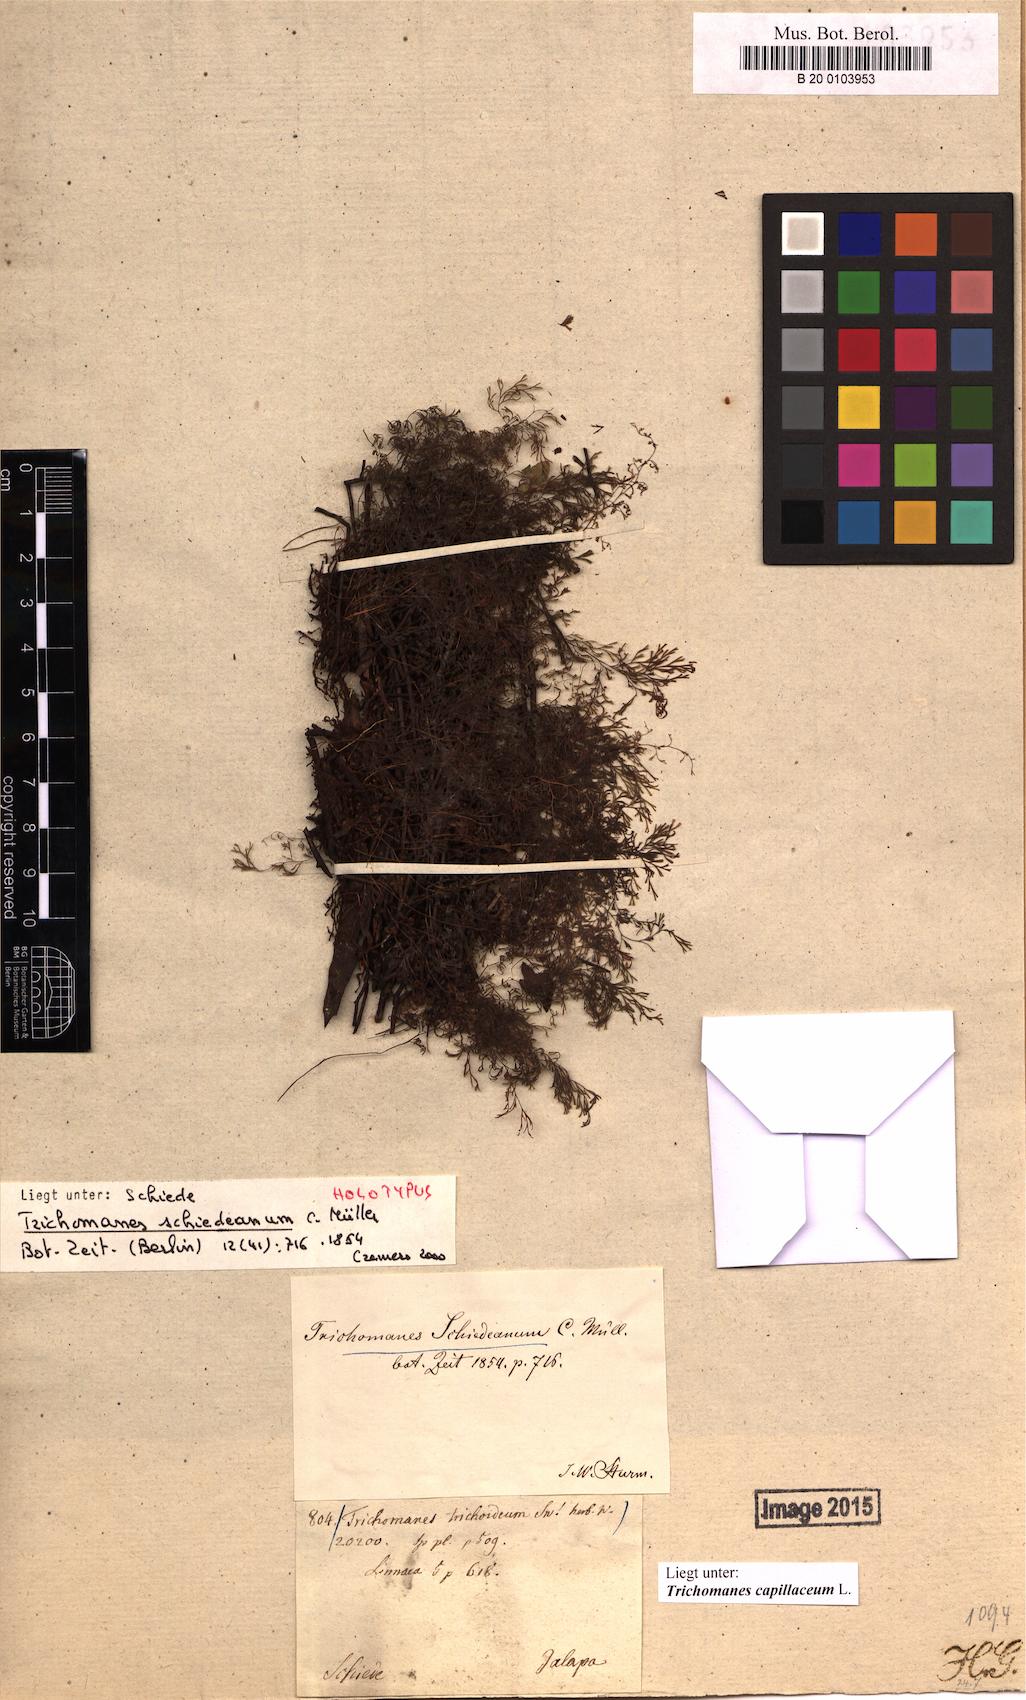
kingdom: Plantae
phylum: Tracheophyta
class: Polypodiopsida
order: Hymenophyllales
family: Hymenophyllaceae
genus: Polyphlebium
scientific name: Polyphlebium capillaceum
